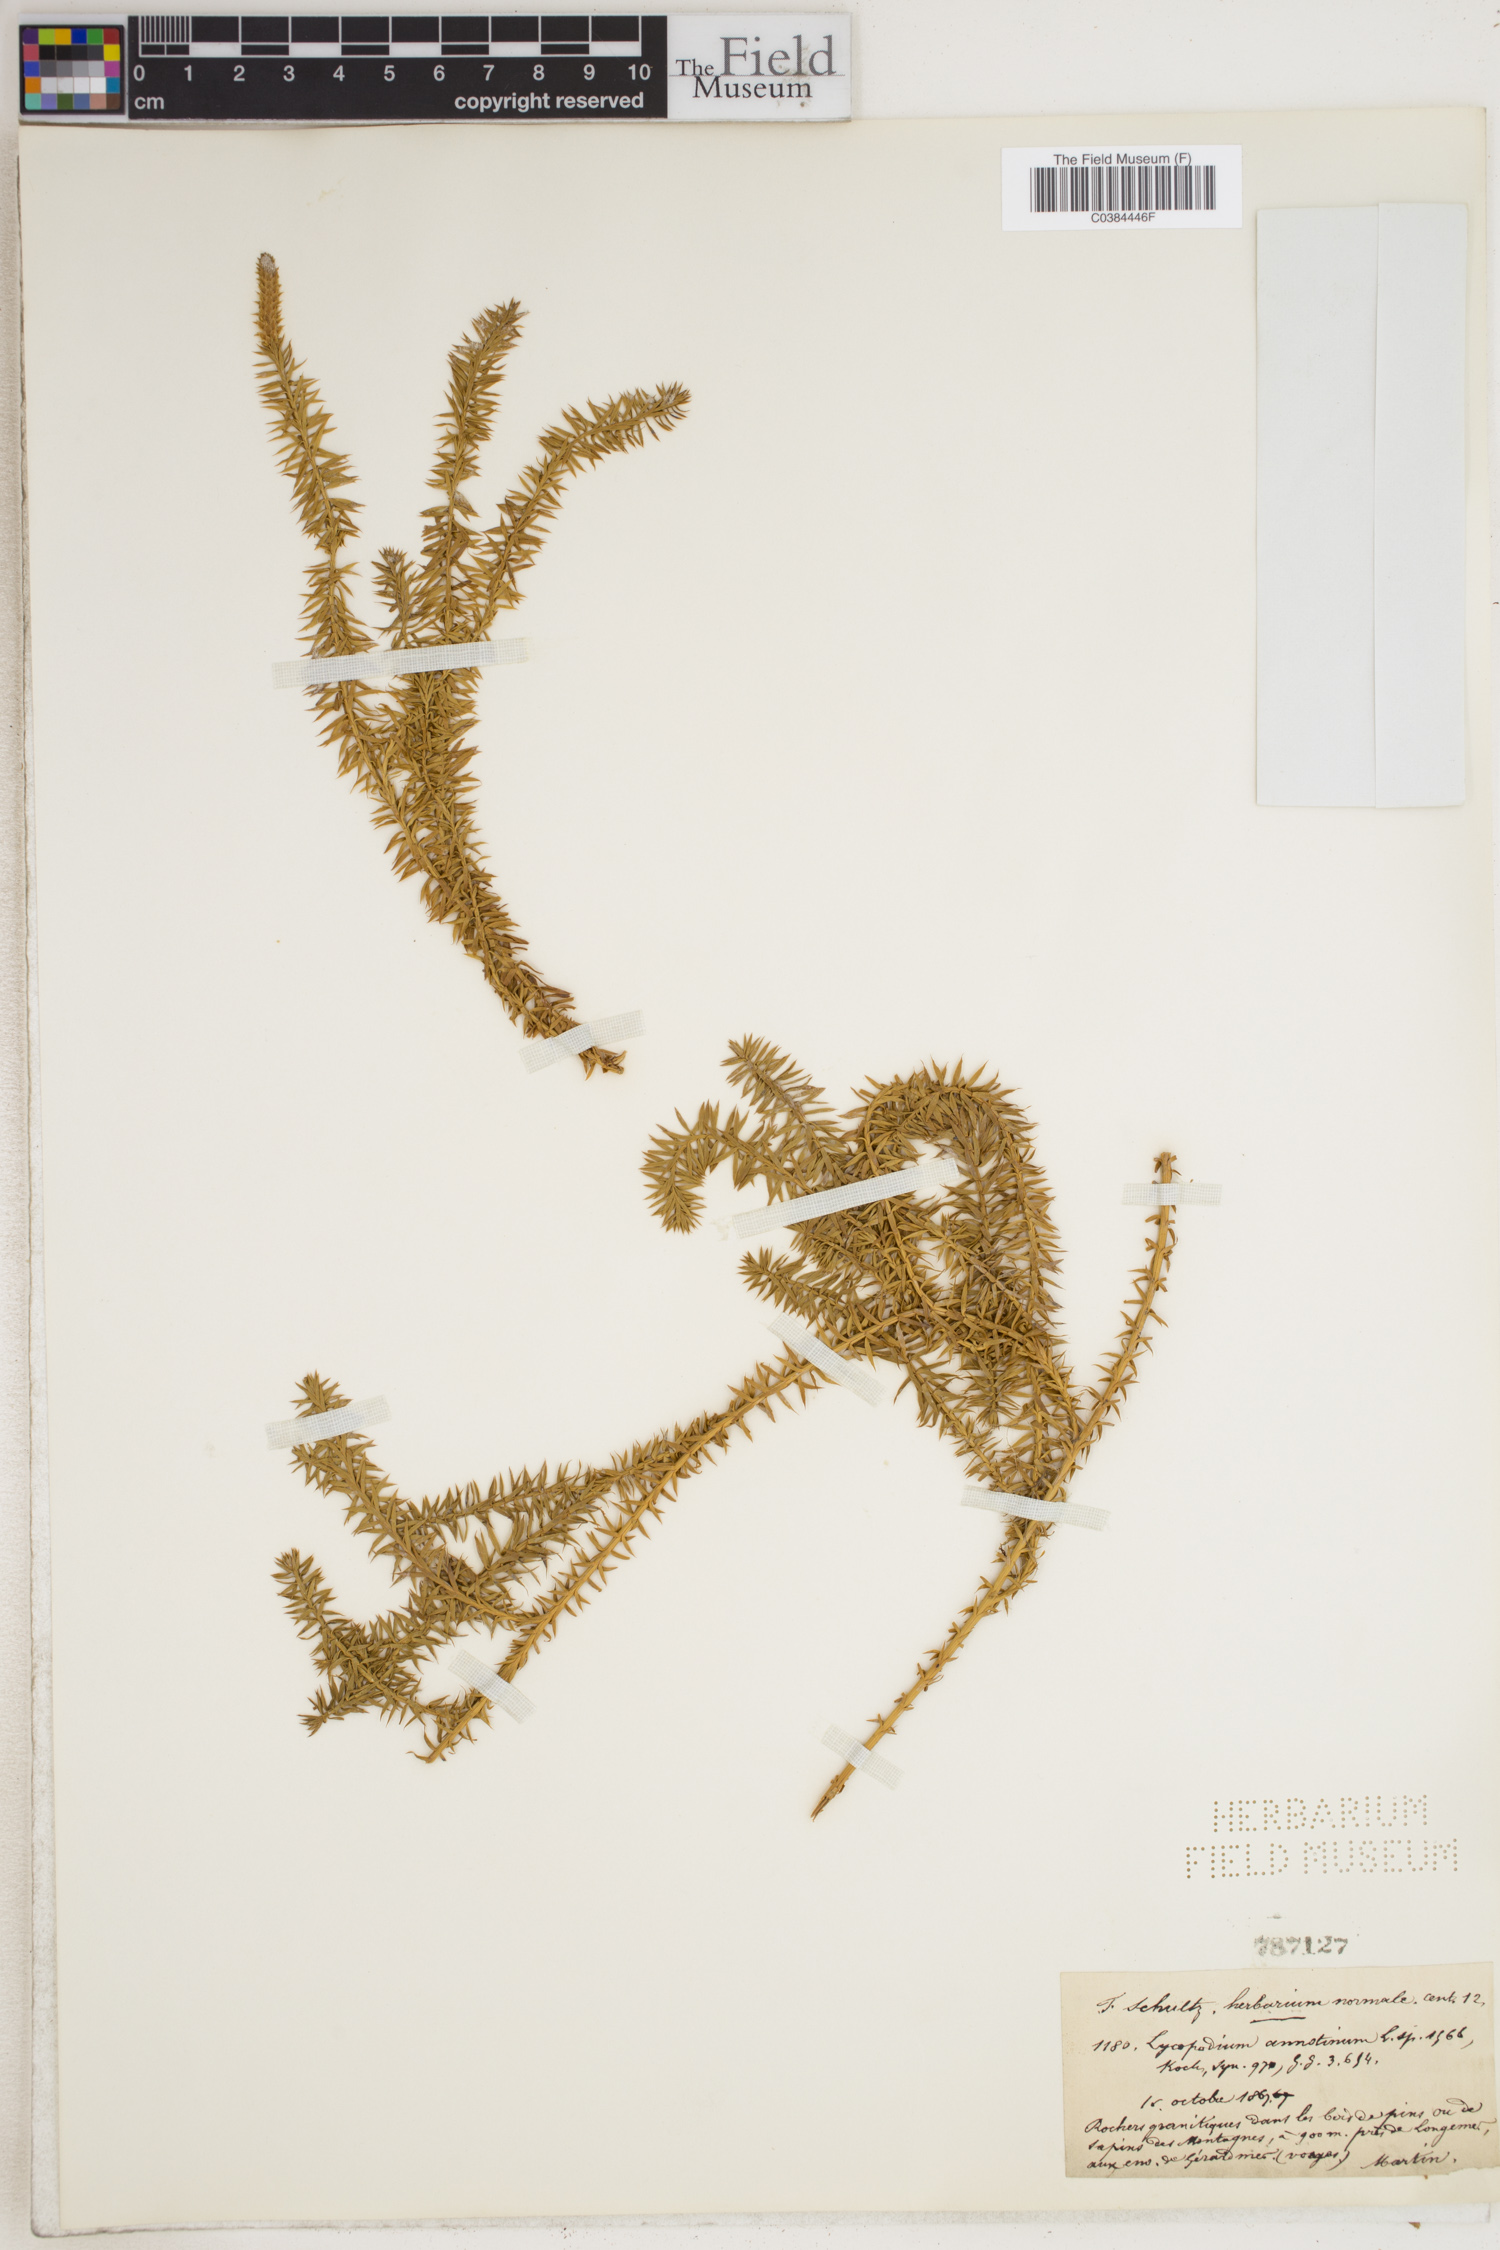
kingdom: Plantae
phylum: Tracheophyta
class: Lycopodiopsida
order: Lycopodiales
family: Lycopodiaceae
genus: Spinulum
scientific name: Spinulum annotinum
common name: Interrupted club-moss
